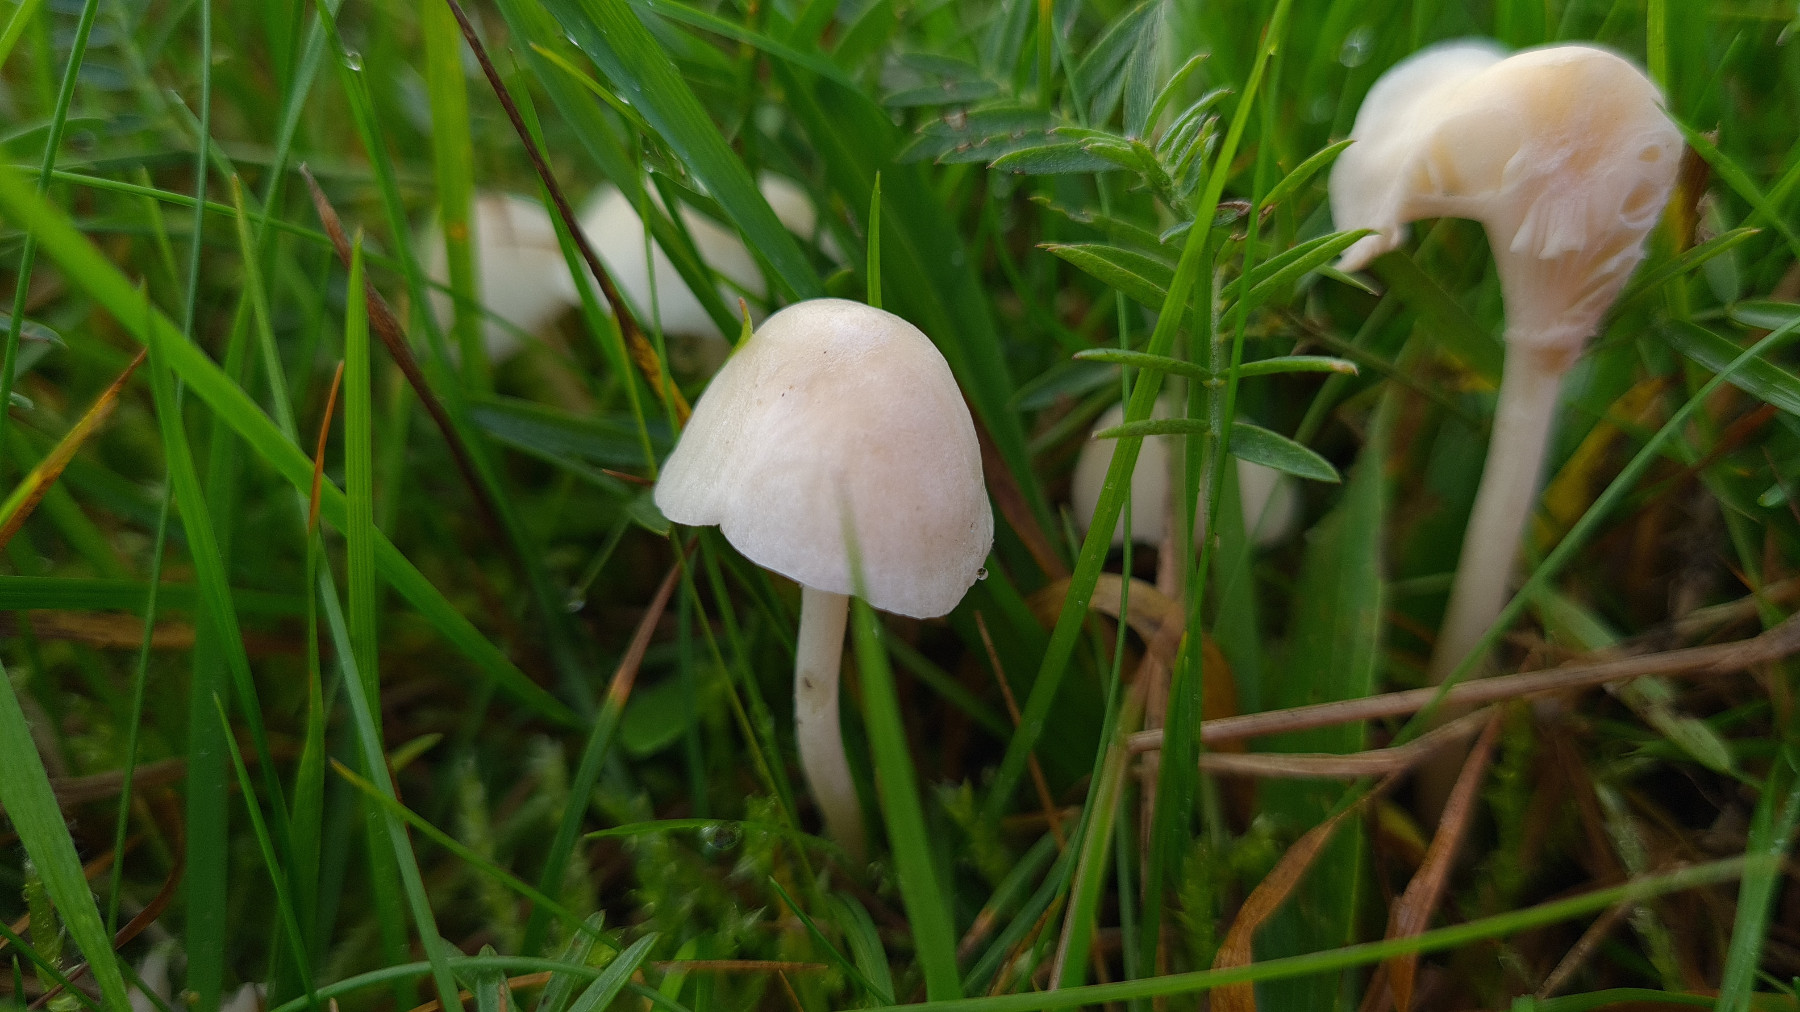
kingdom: Fungi
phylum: Basidiomycota
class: Agaricomycetes
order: Agaricales
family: Hygrophoraceae
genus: Cuphophyllus
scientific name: Cuphophyllus virgineus
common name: snehvid vokshat
